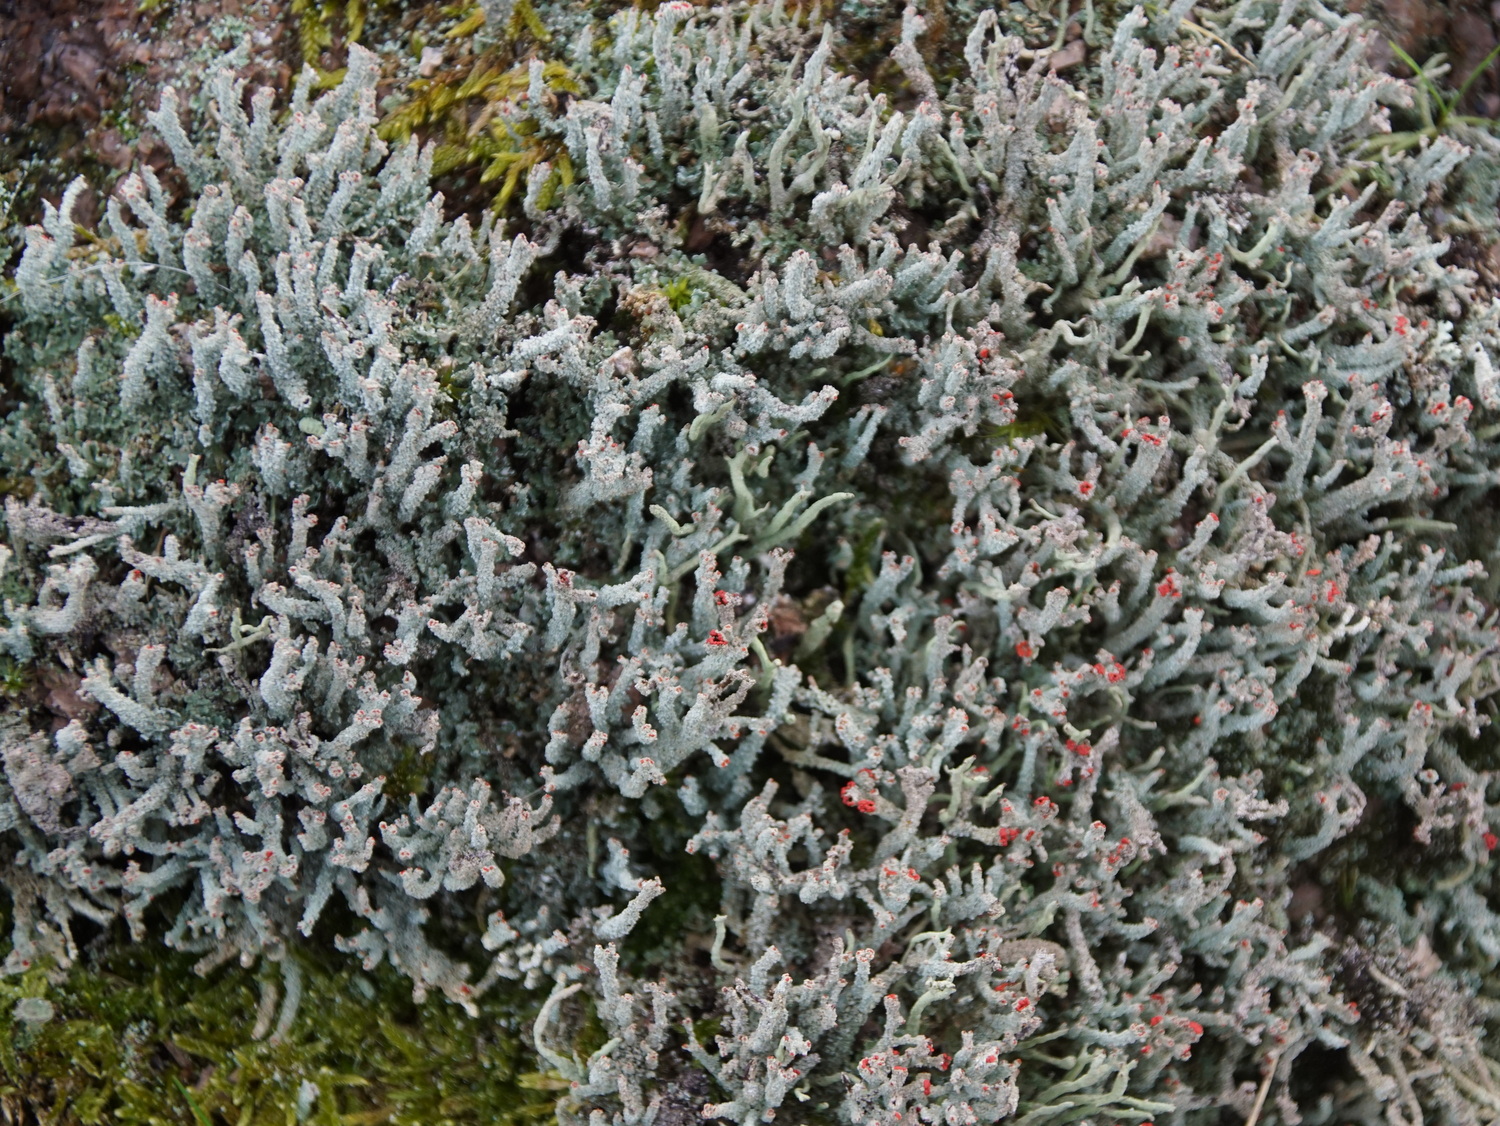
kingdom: Fungi
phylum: Ascomycota
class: Lecanoromycetes
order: Lecanorales
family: Cladoniaceae
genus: Cladonia
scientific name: Cladonia polydactyla
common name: vifte-bægerlav
